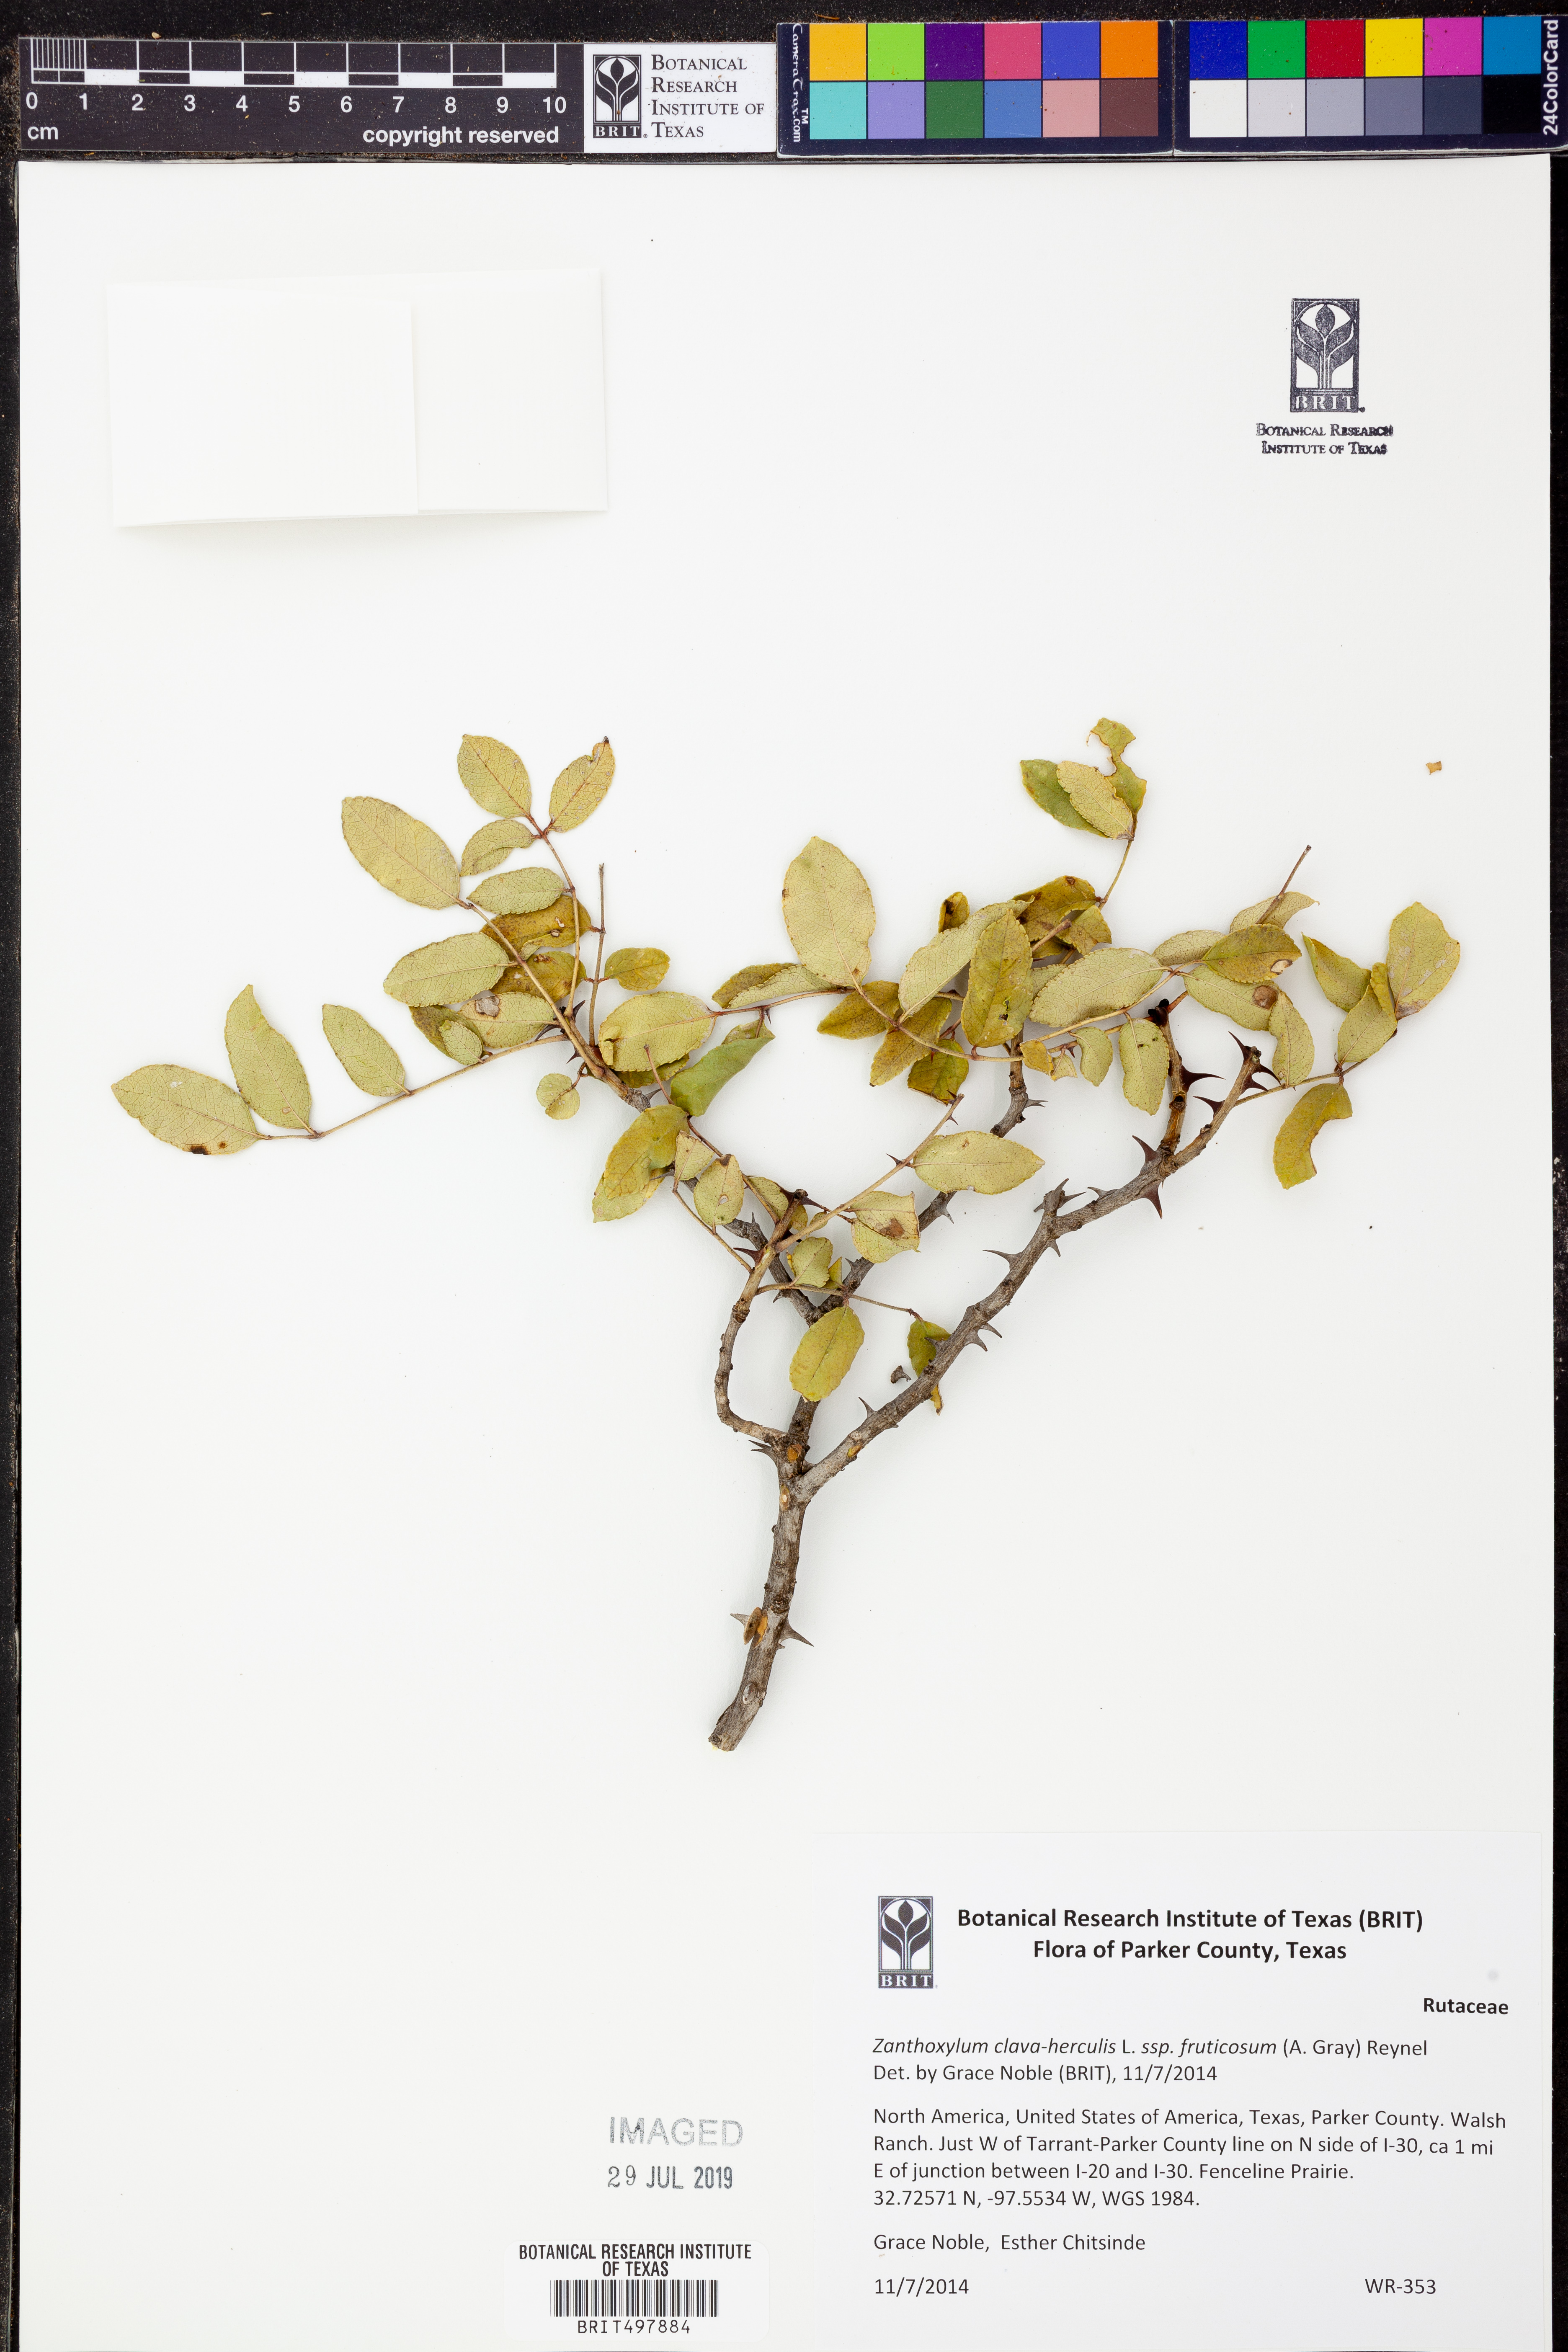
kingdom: Plantae
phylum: Tracheophyta
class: Magnoliopsida
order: Sapindales
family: Rutaceae
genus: Zanthoxylum
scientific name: Zanthoxylum clava-herculis
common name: Hercules'-club
